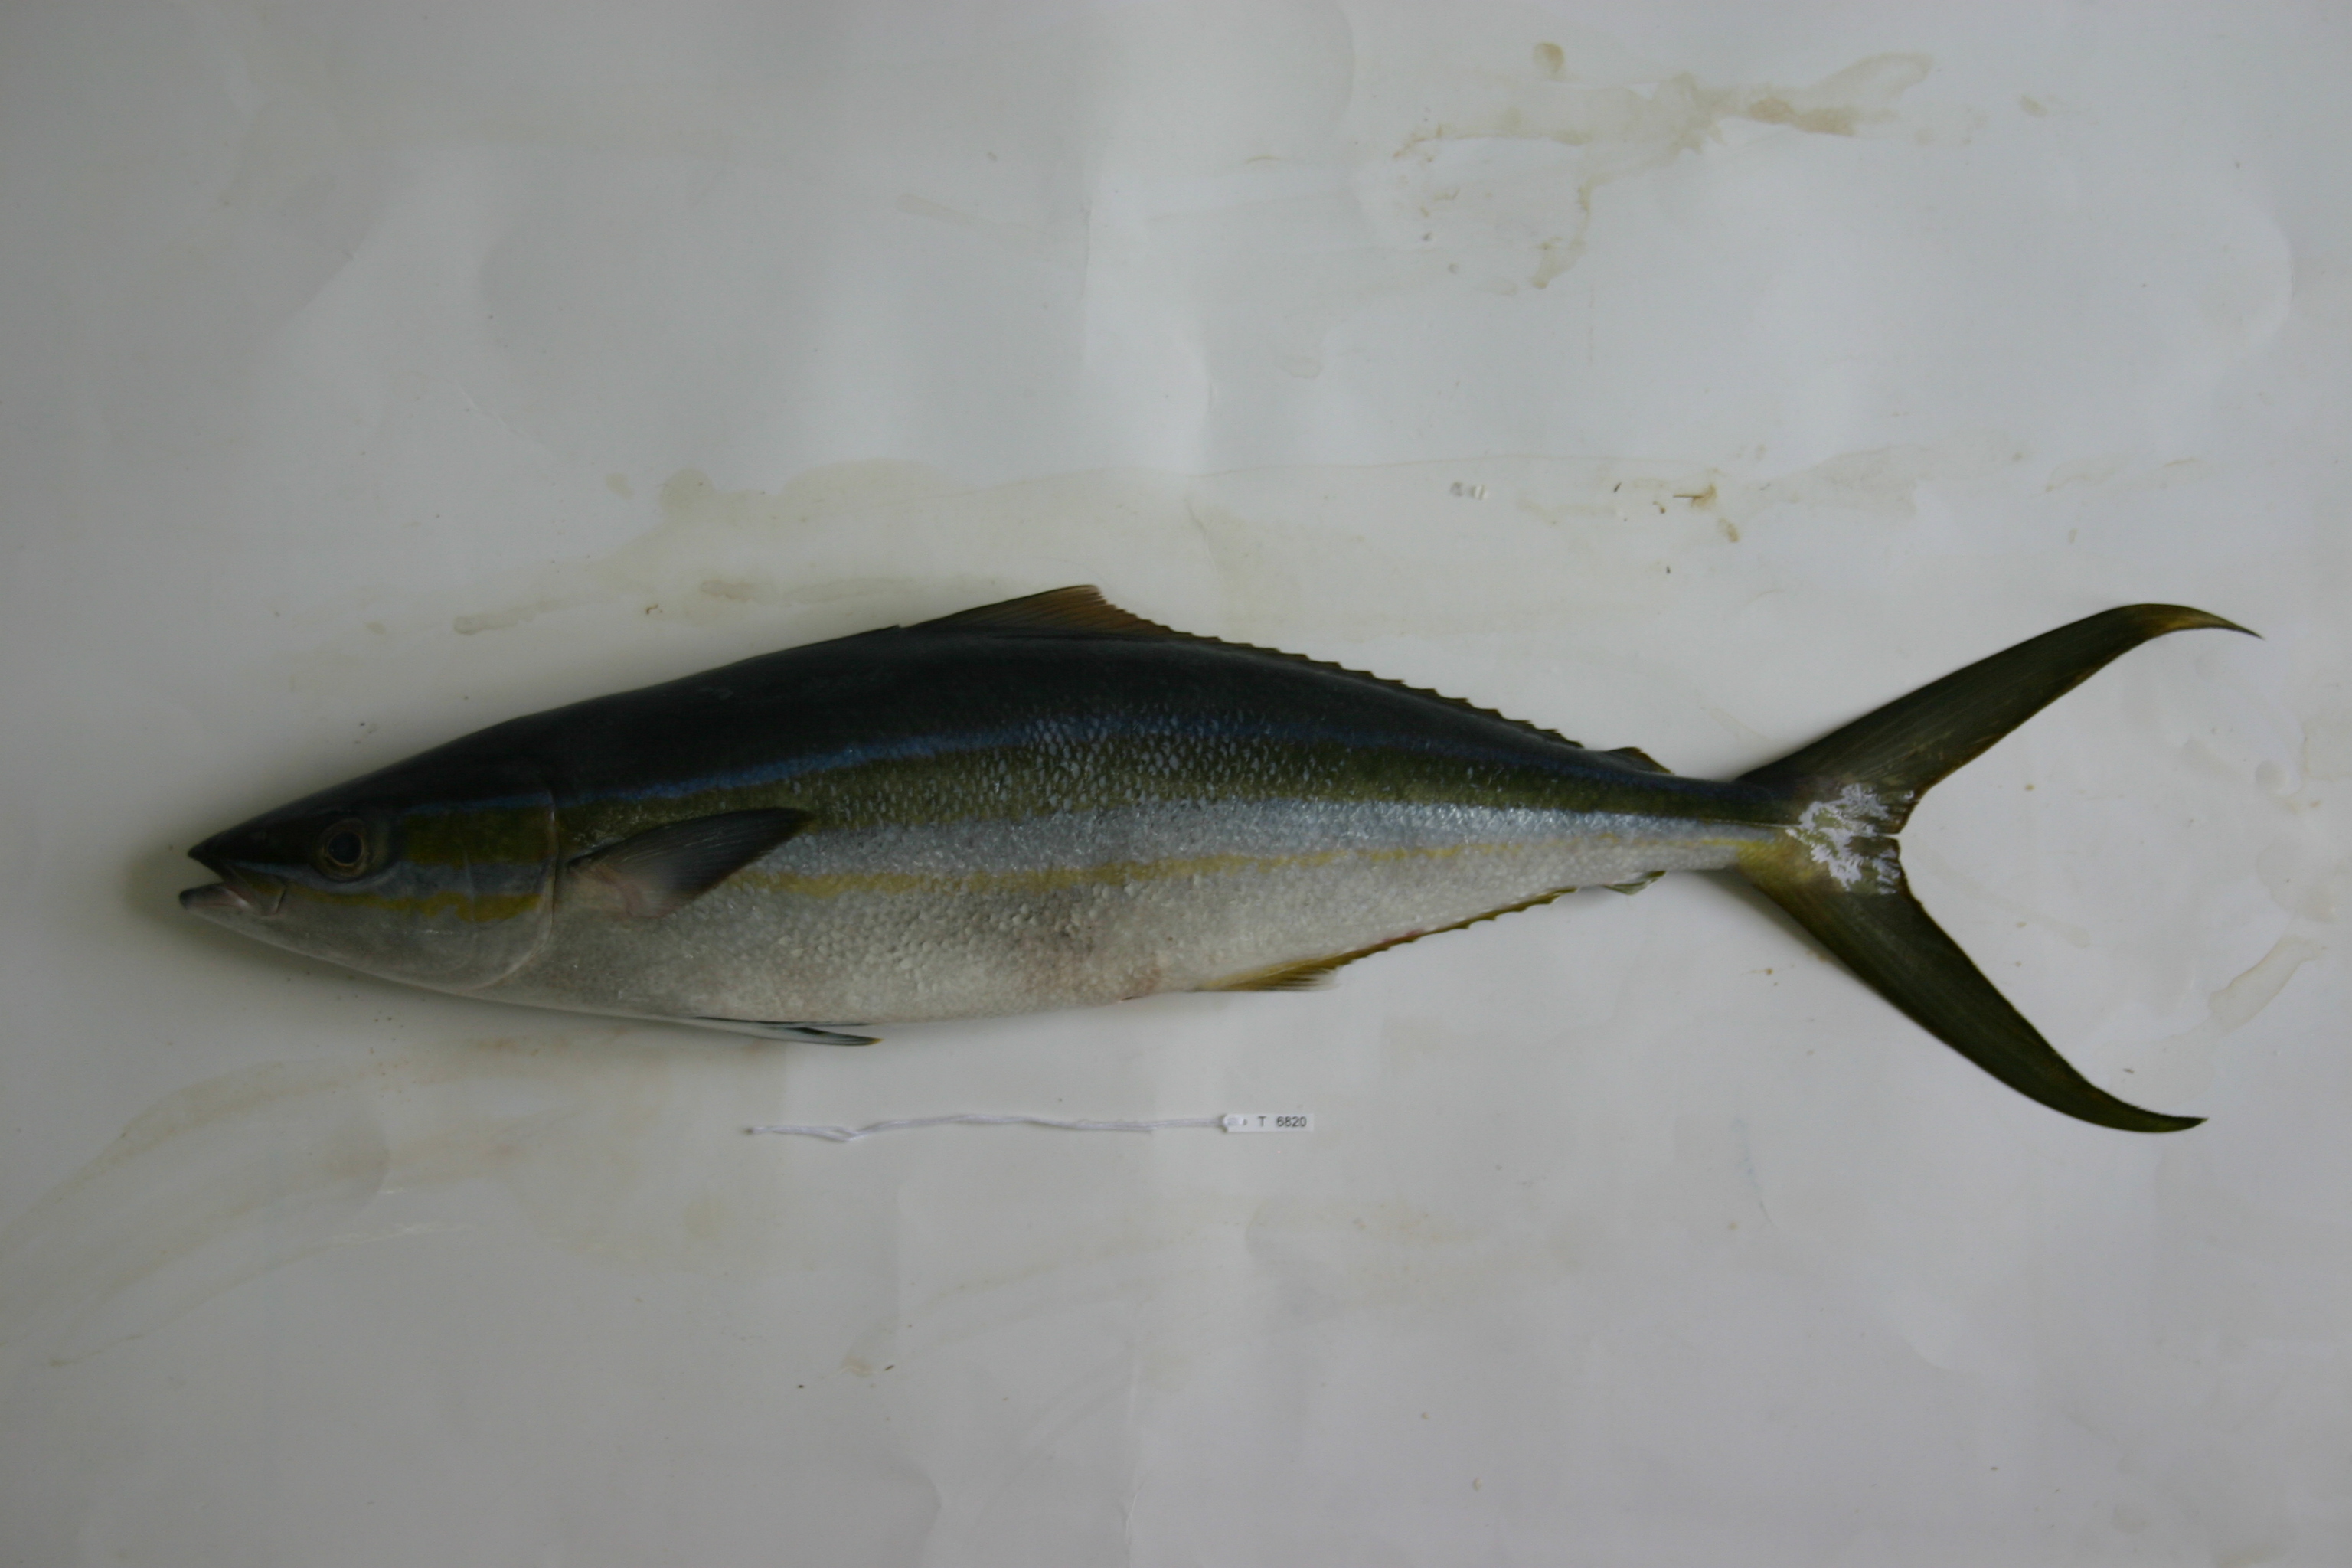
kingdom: Animalia
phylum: Chordata
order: Perciformes
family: Carangidae
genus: Elagatis
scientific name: Elagatis bipinnulata
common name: Rainbow runner
